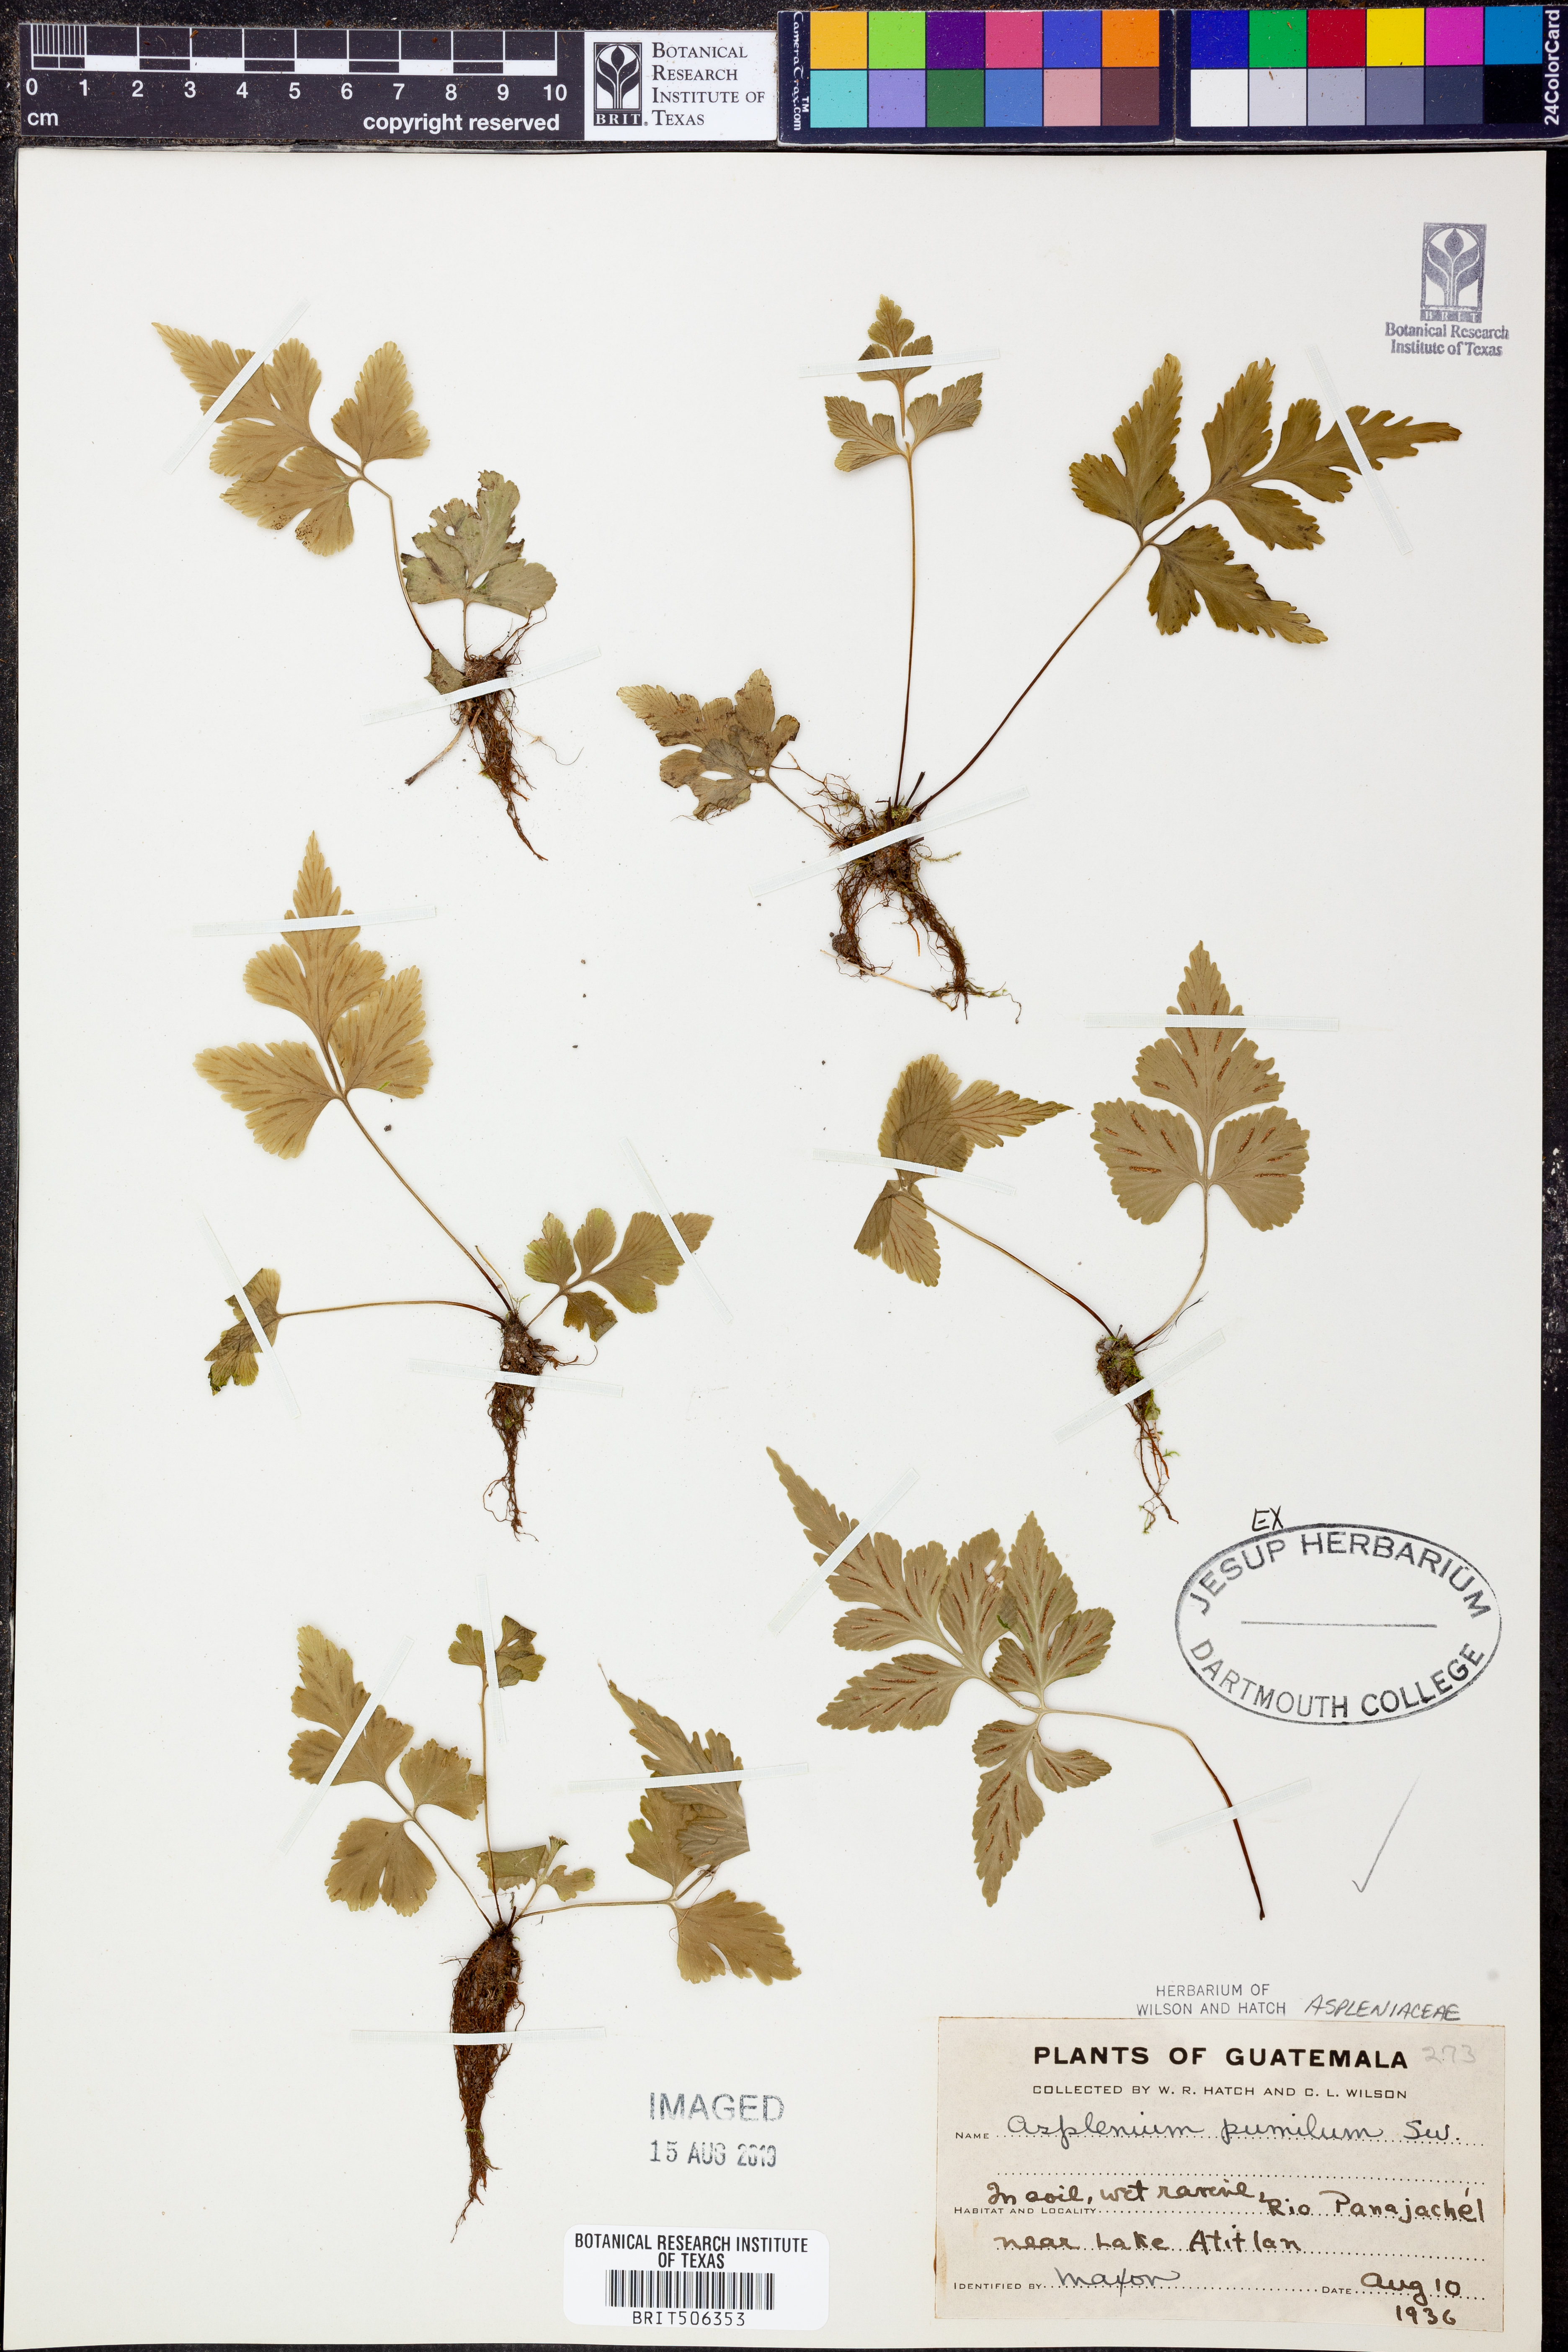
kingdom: Plantae
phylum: Tracheophyta
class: Polypodiopsida
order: Polypodiales
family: Aspleniaceae
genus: Asplenium
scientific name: Asplenium pumilum
